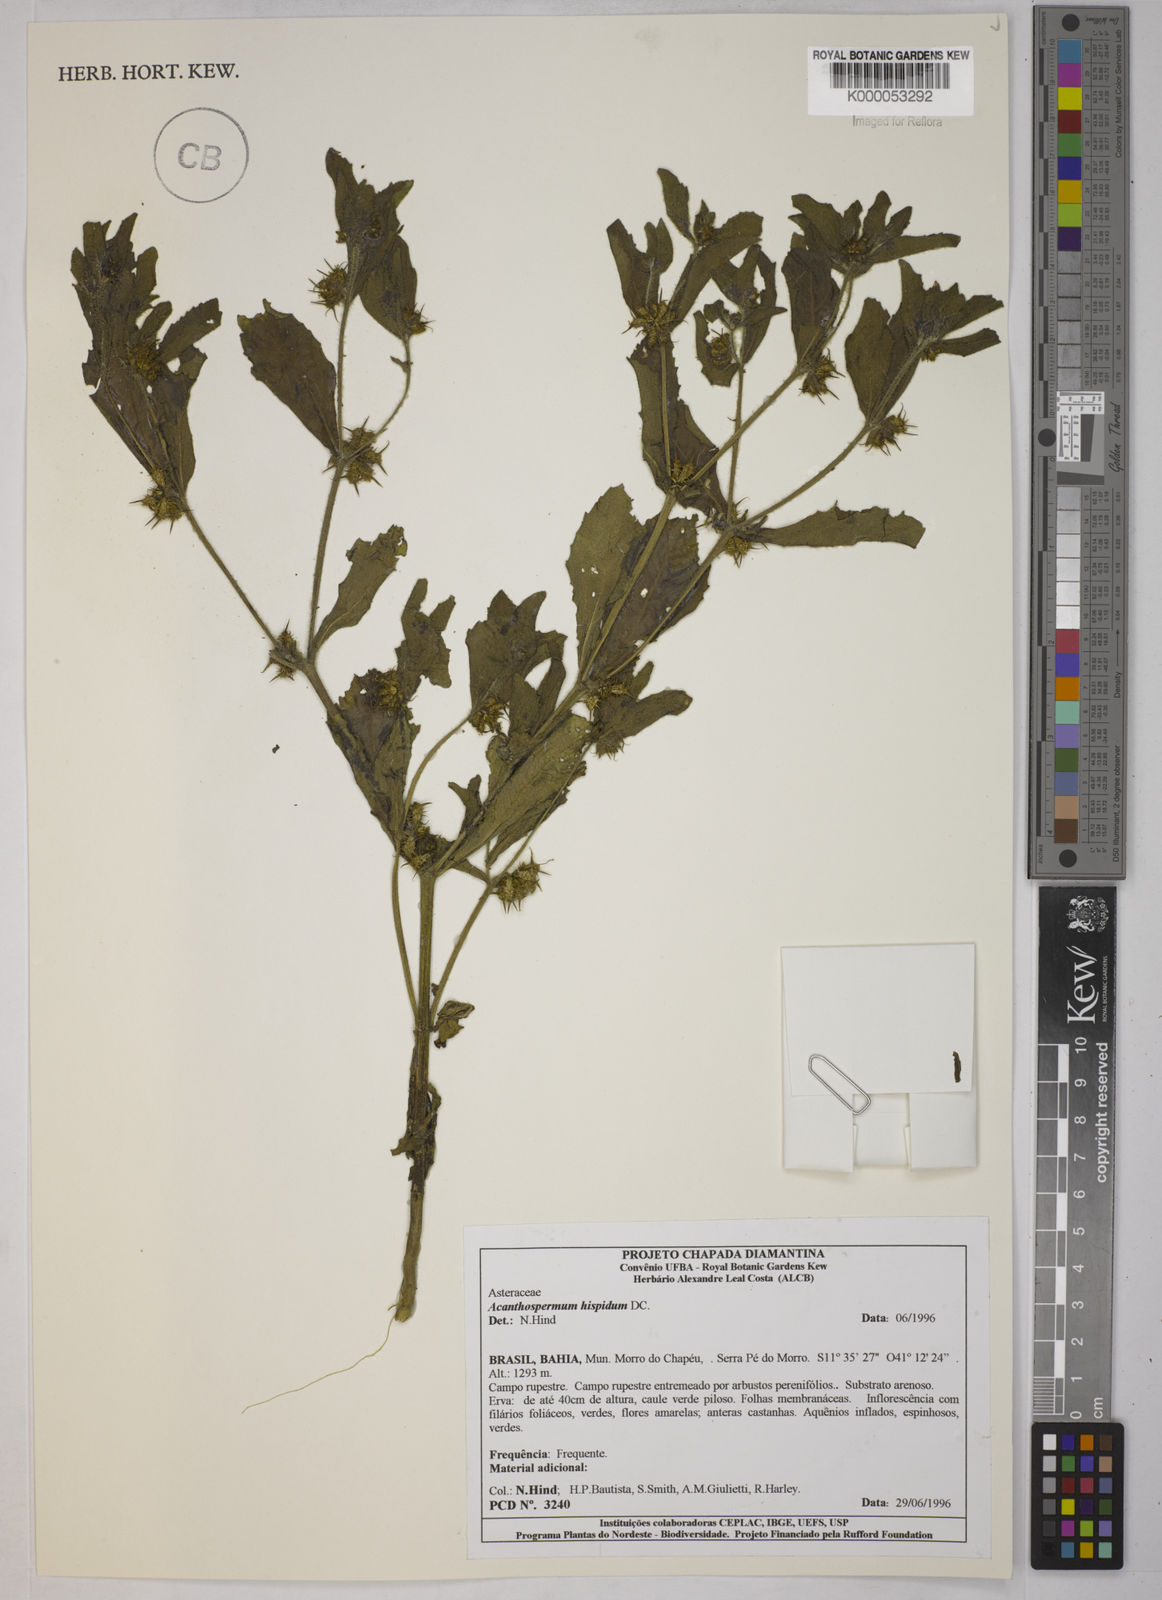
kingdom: Plantae
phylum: Tracheophyta
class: Magnoliopsida
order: Asterales
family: Asteraceae
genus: Acanthospermum
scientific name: Acanthospermum hispidum
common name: Hispid starbur
